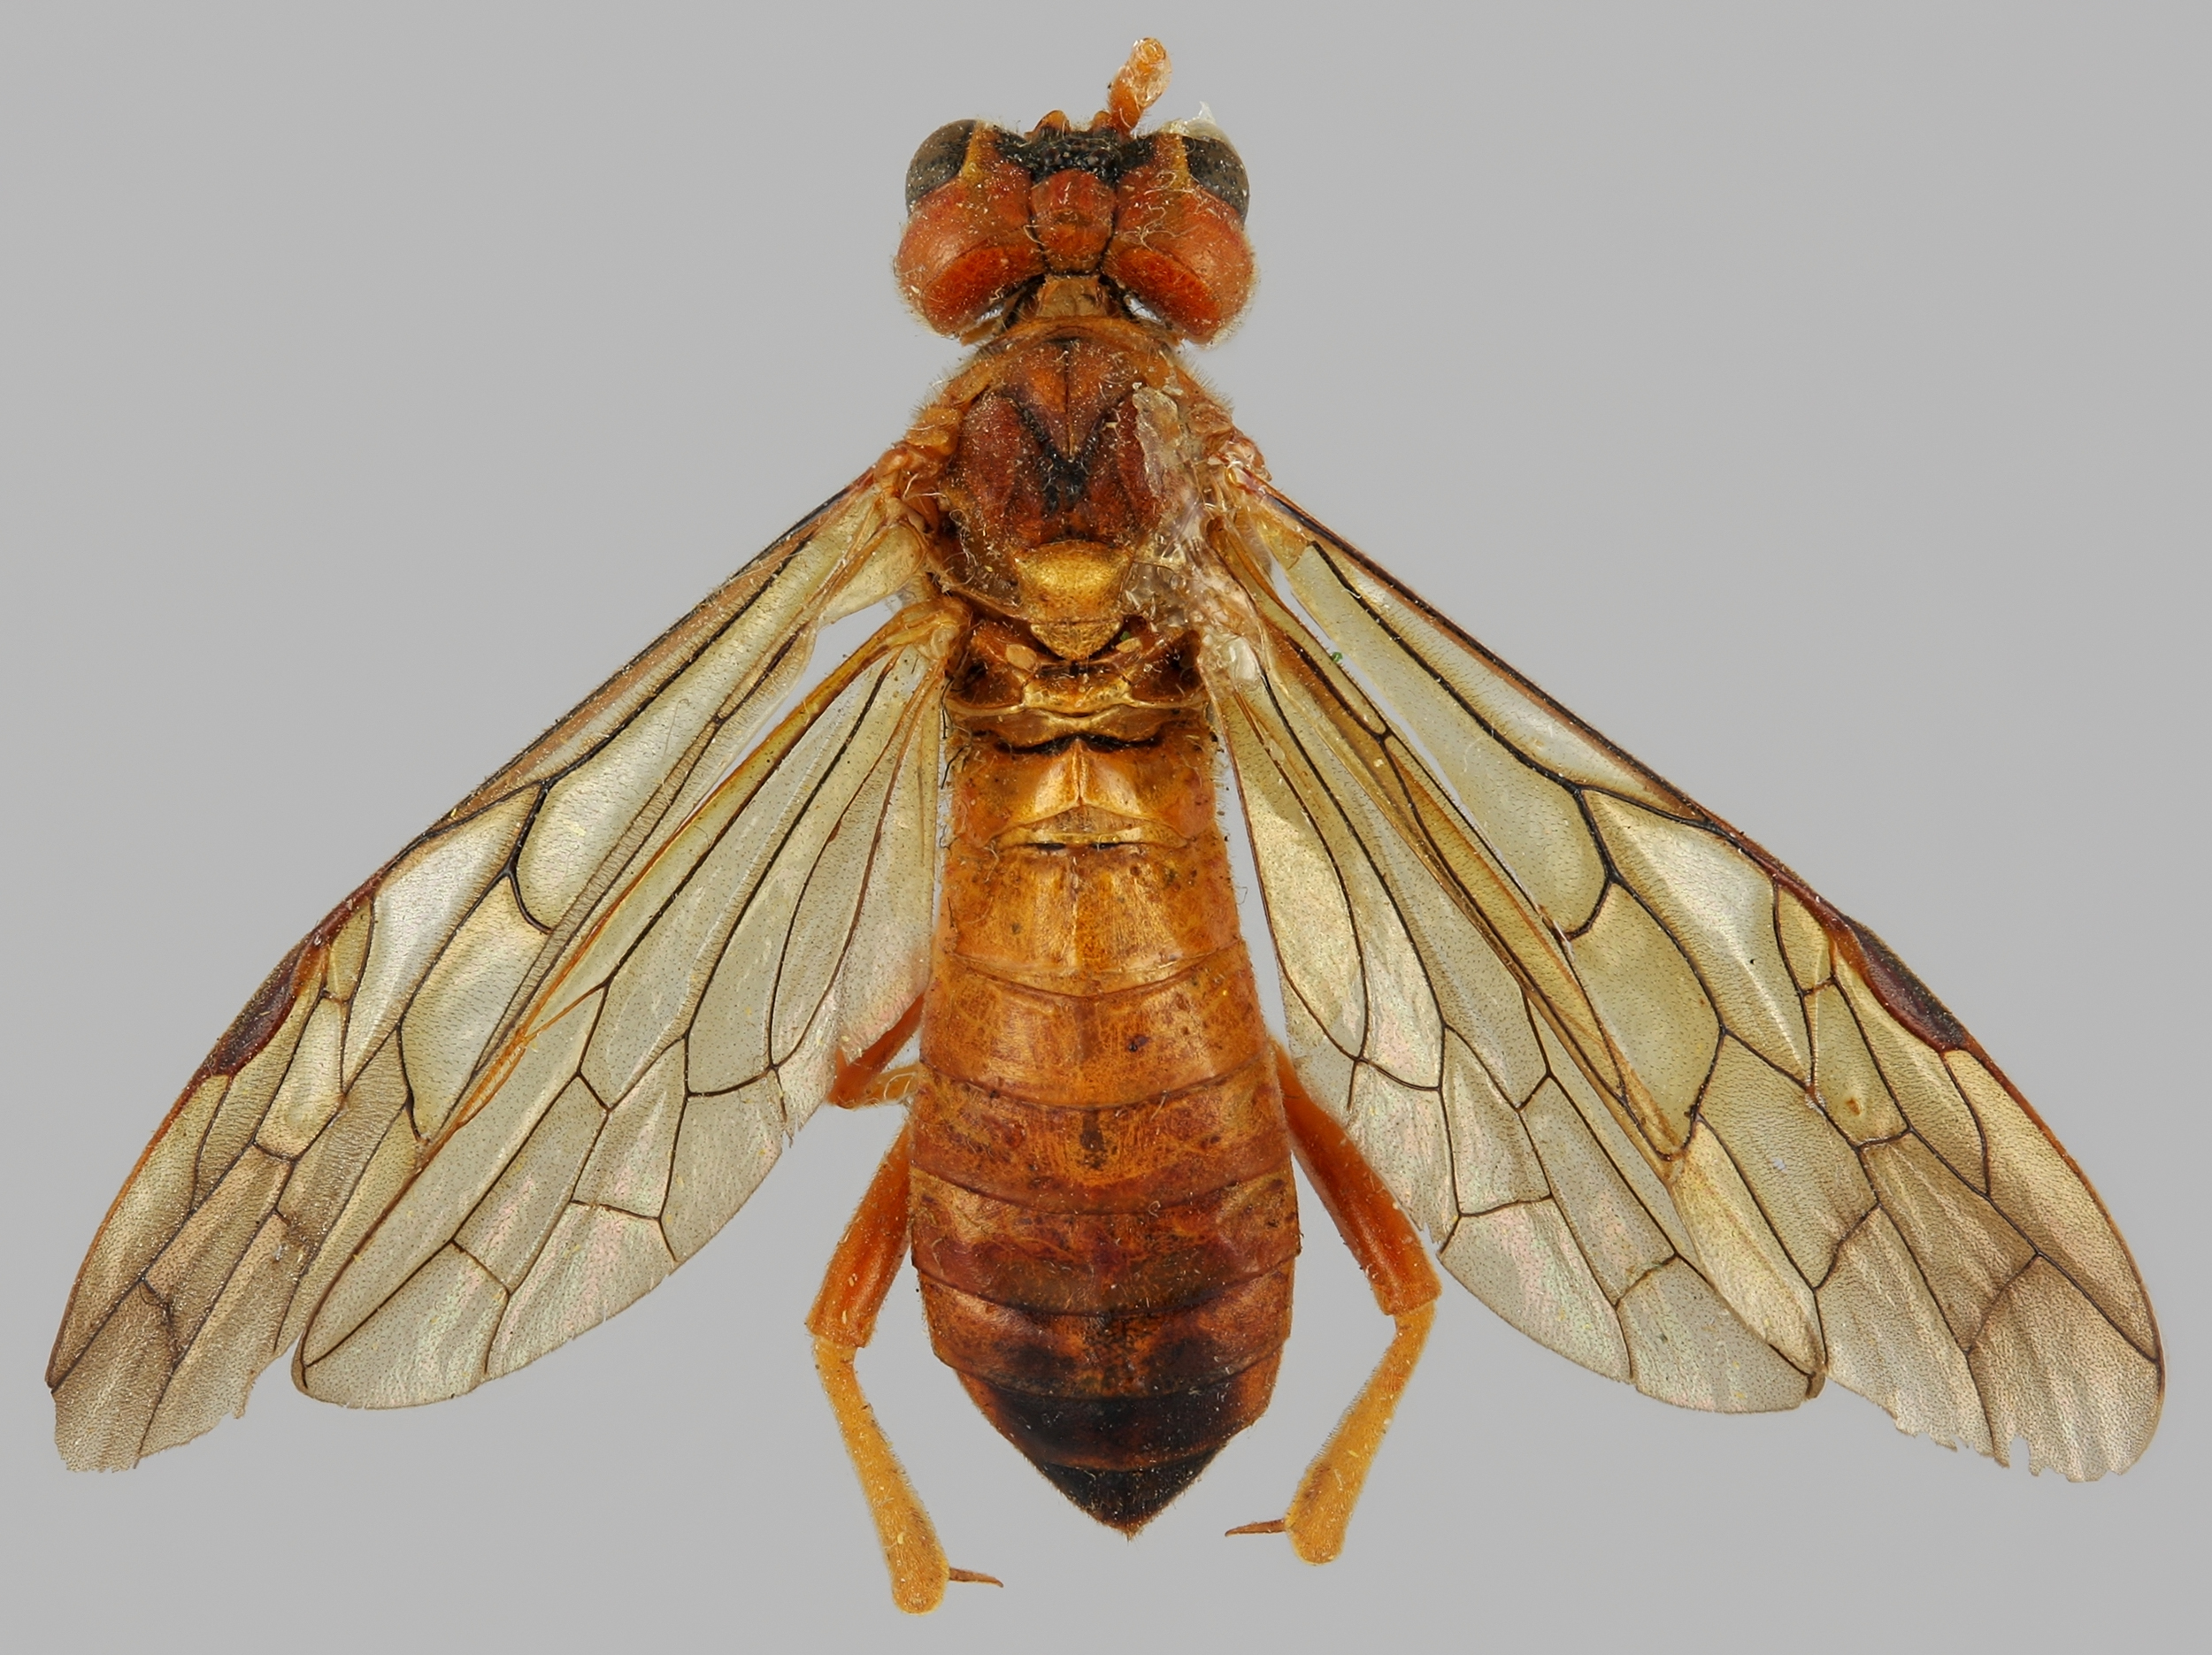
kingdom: Animalia
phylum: Arthropoda
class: Insecta
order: Hymenoptera
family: Tenthredinidae
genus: Tenthredo
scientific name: Tenthredo adusta
